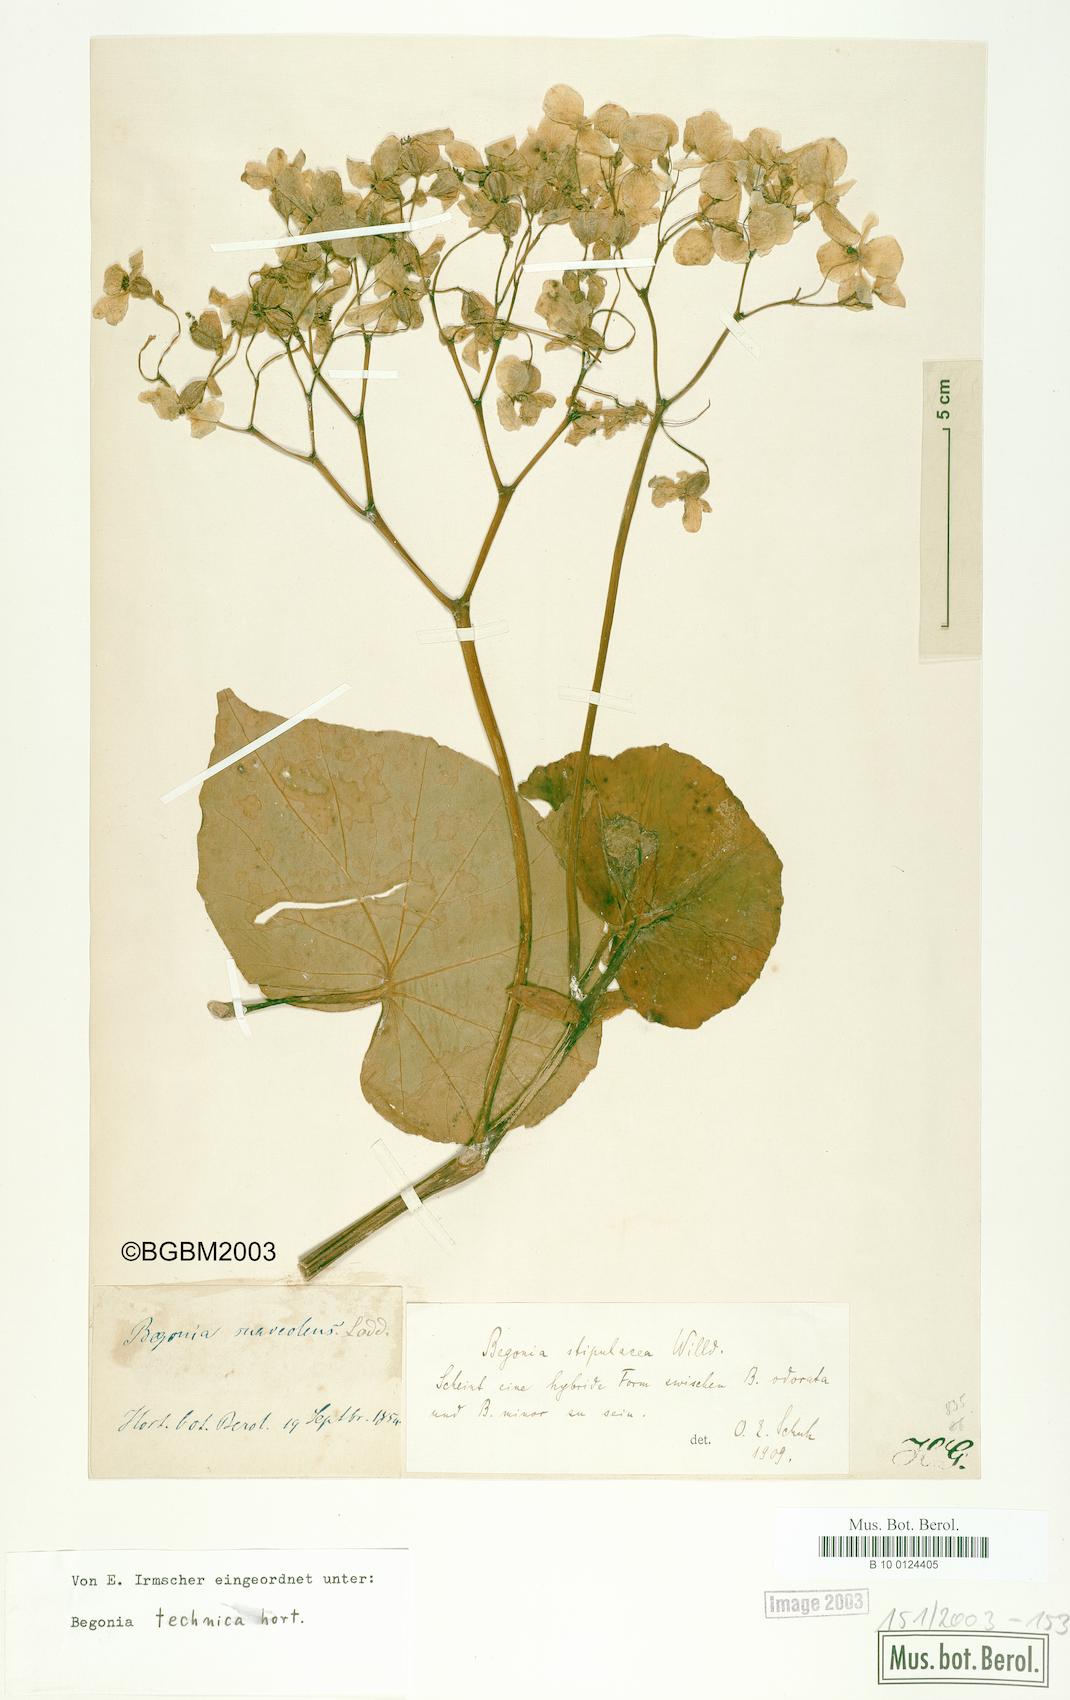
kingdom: Plantae
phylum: Tracheophyta
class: Magnoliopsida
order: Cucurbitales
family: Begoniaceae
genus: Begonia
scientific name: Begonia stipularis
